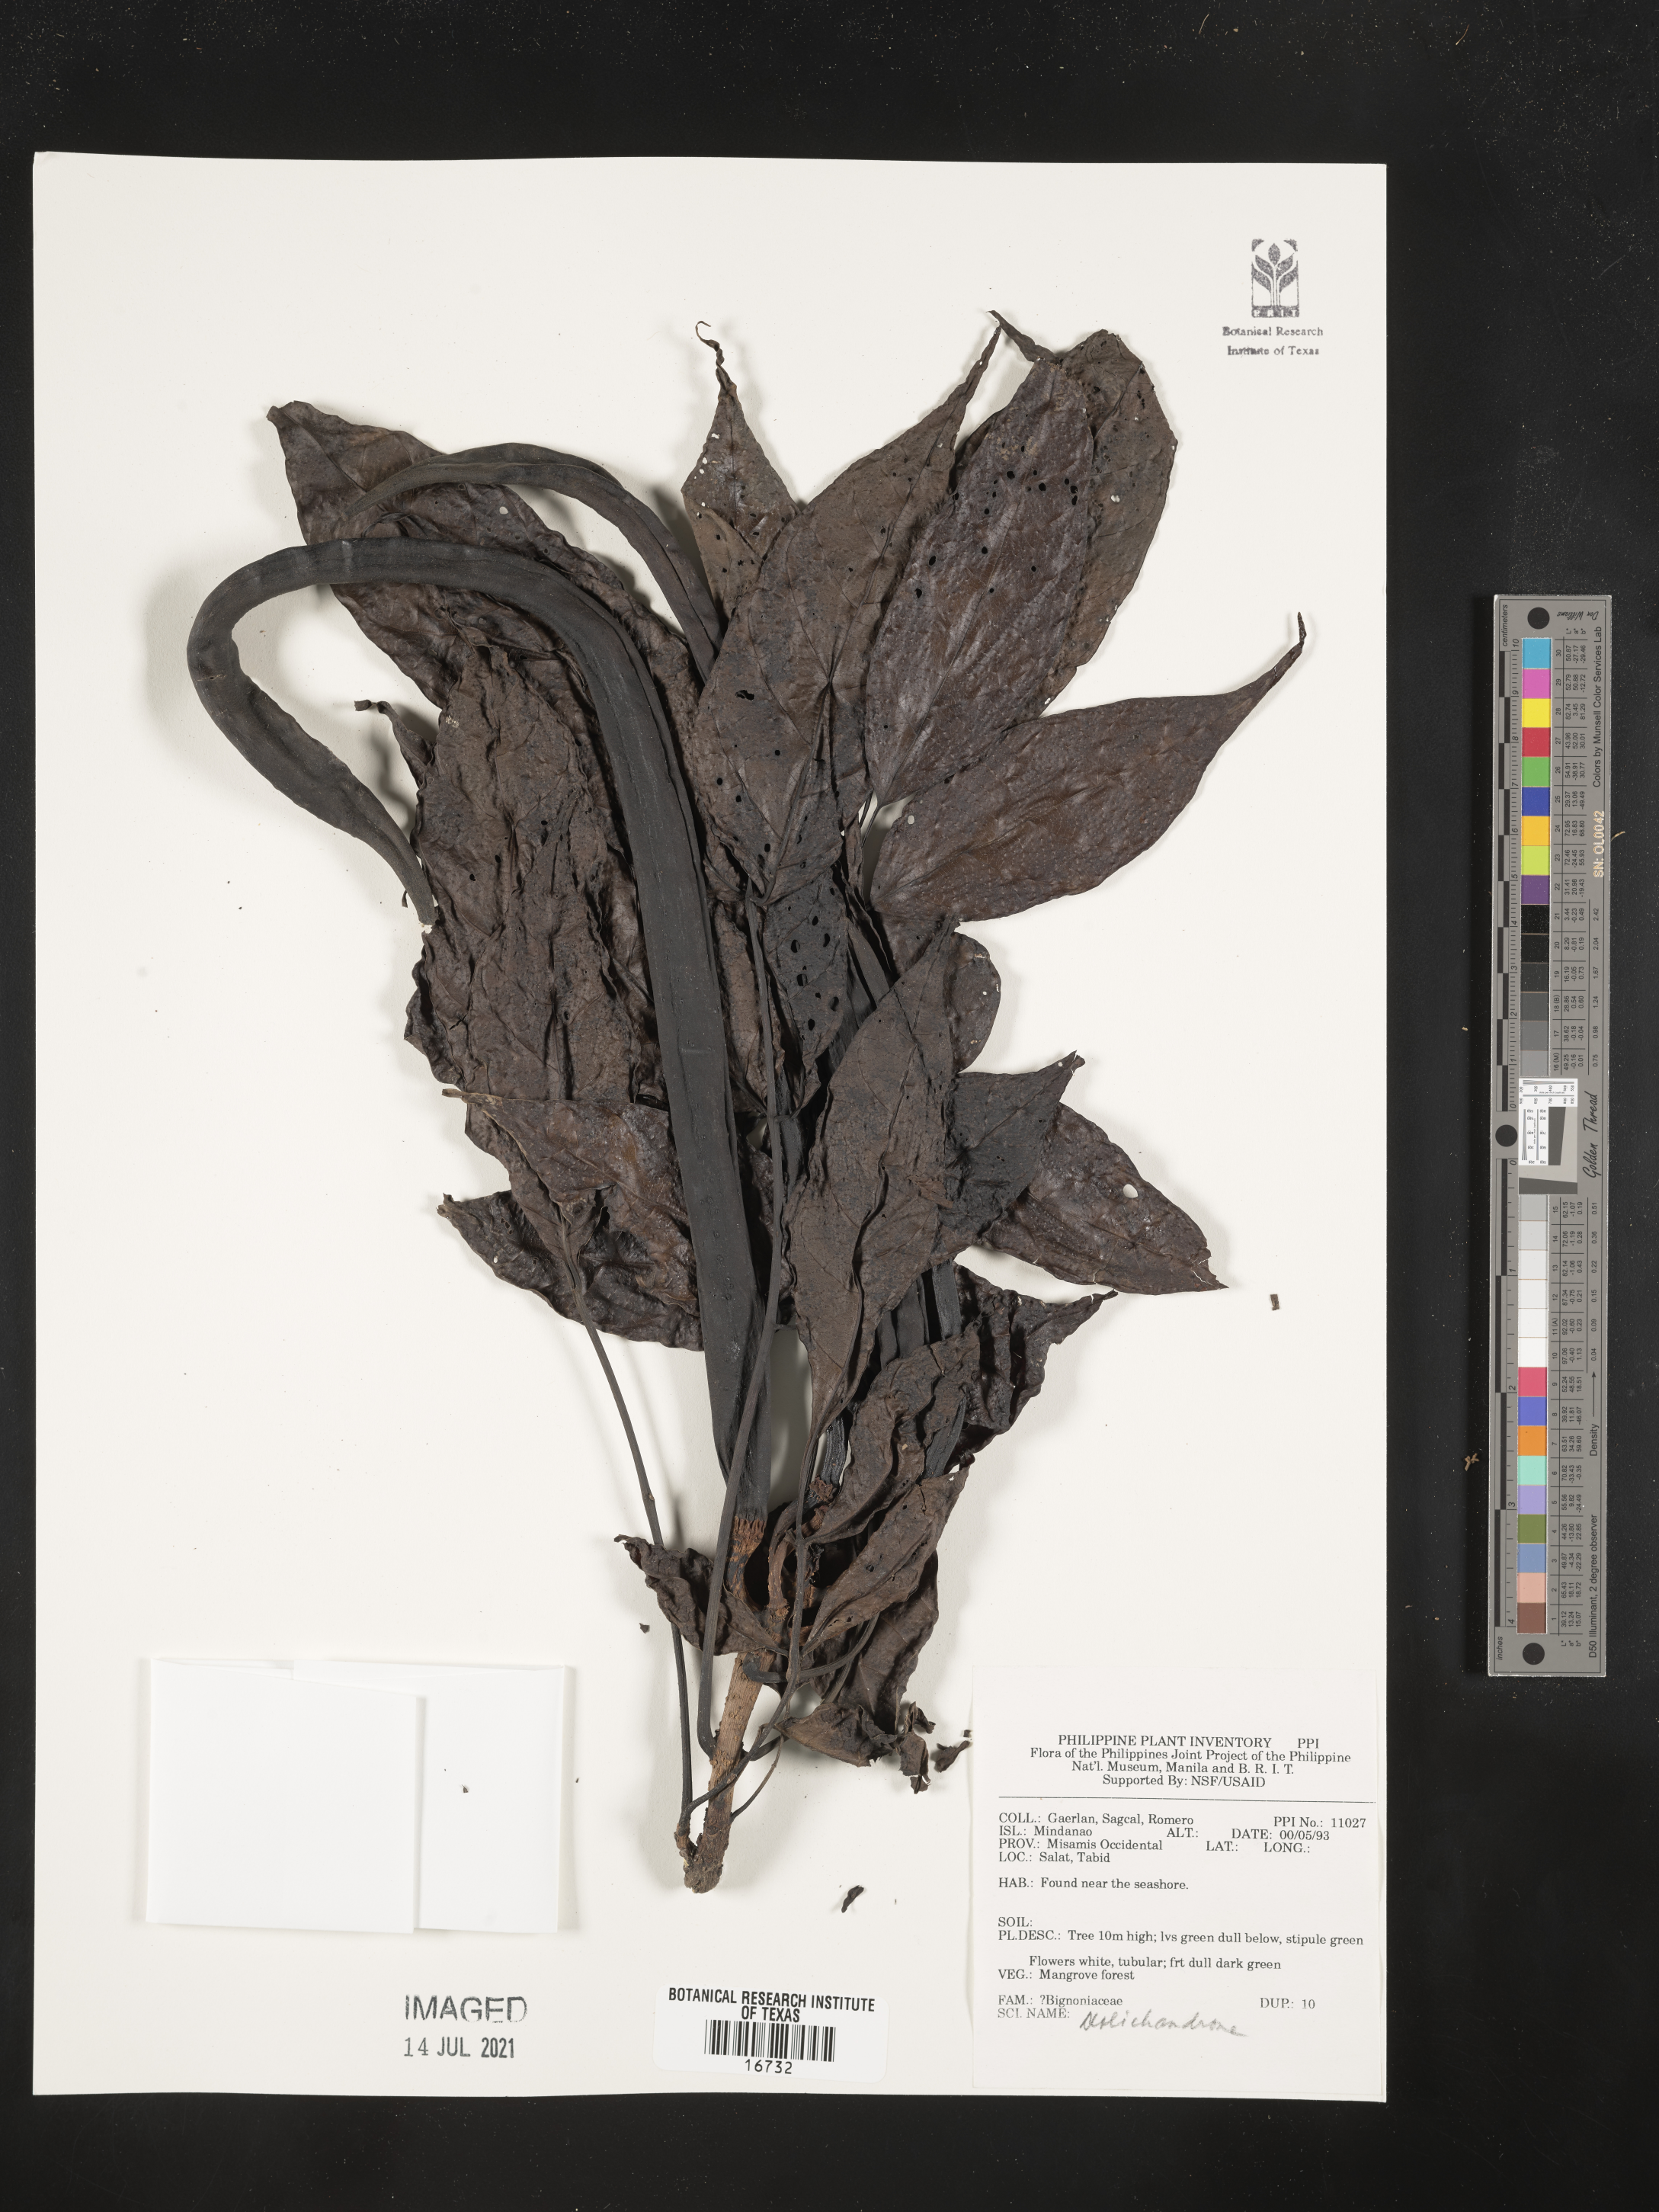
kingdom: Plantae
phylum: Tracheophyta
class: Magnoliopsida
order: Lamiales
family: Bignoniaceae
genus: Dolichandrone
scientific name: Dolichandrone
